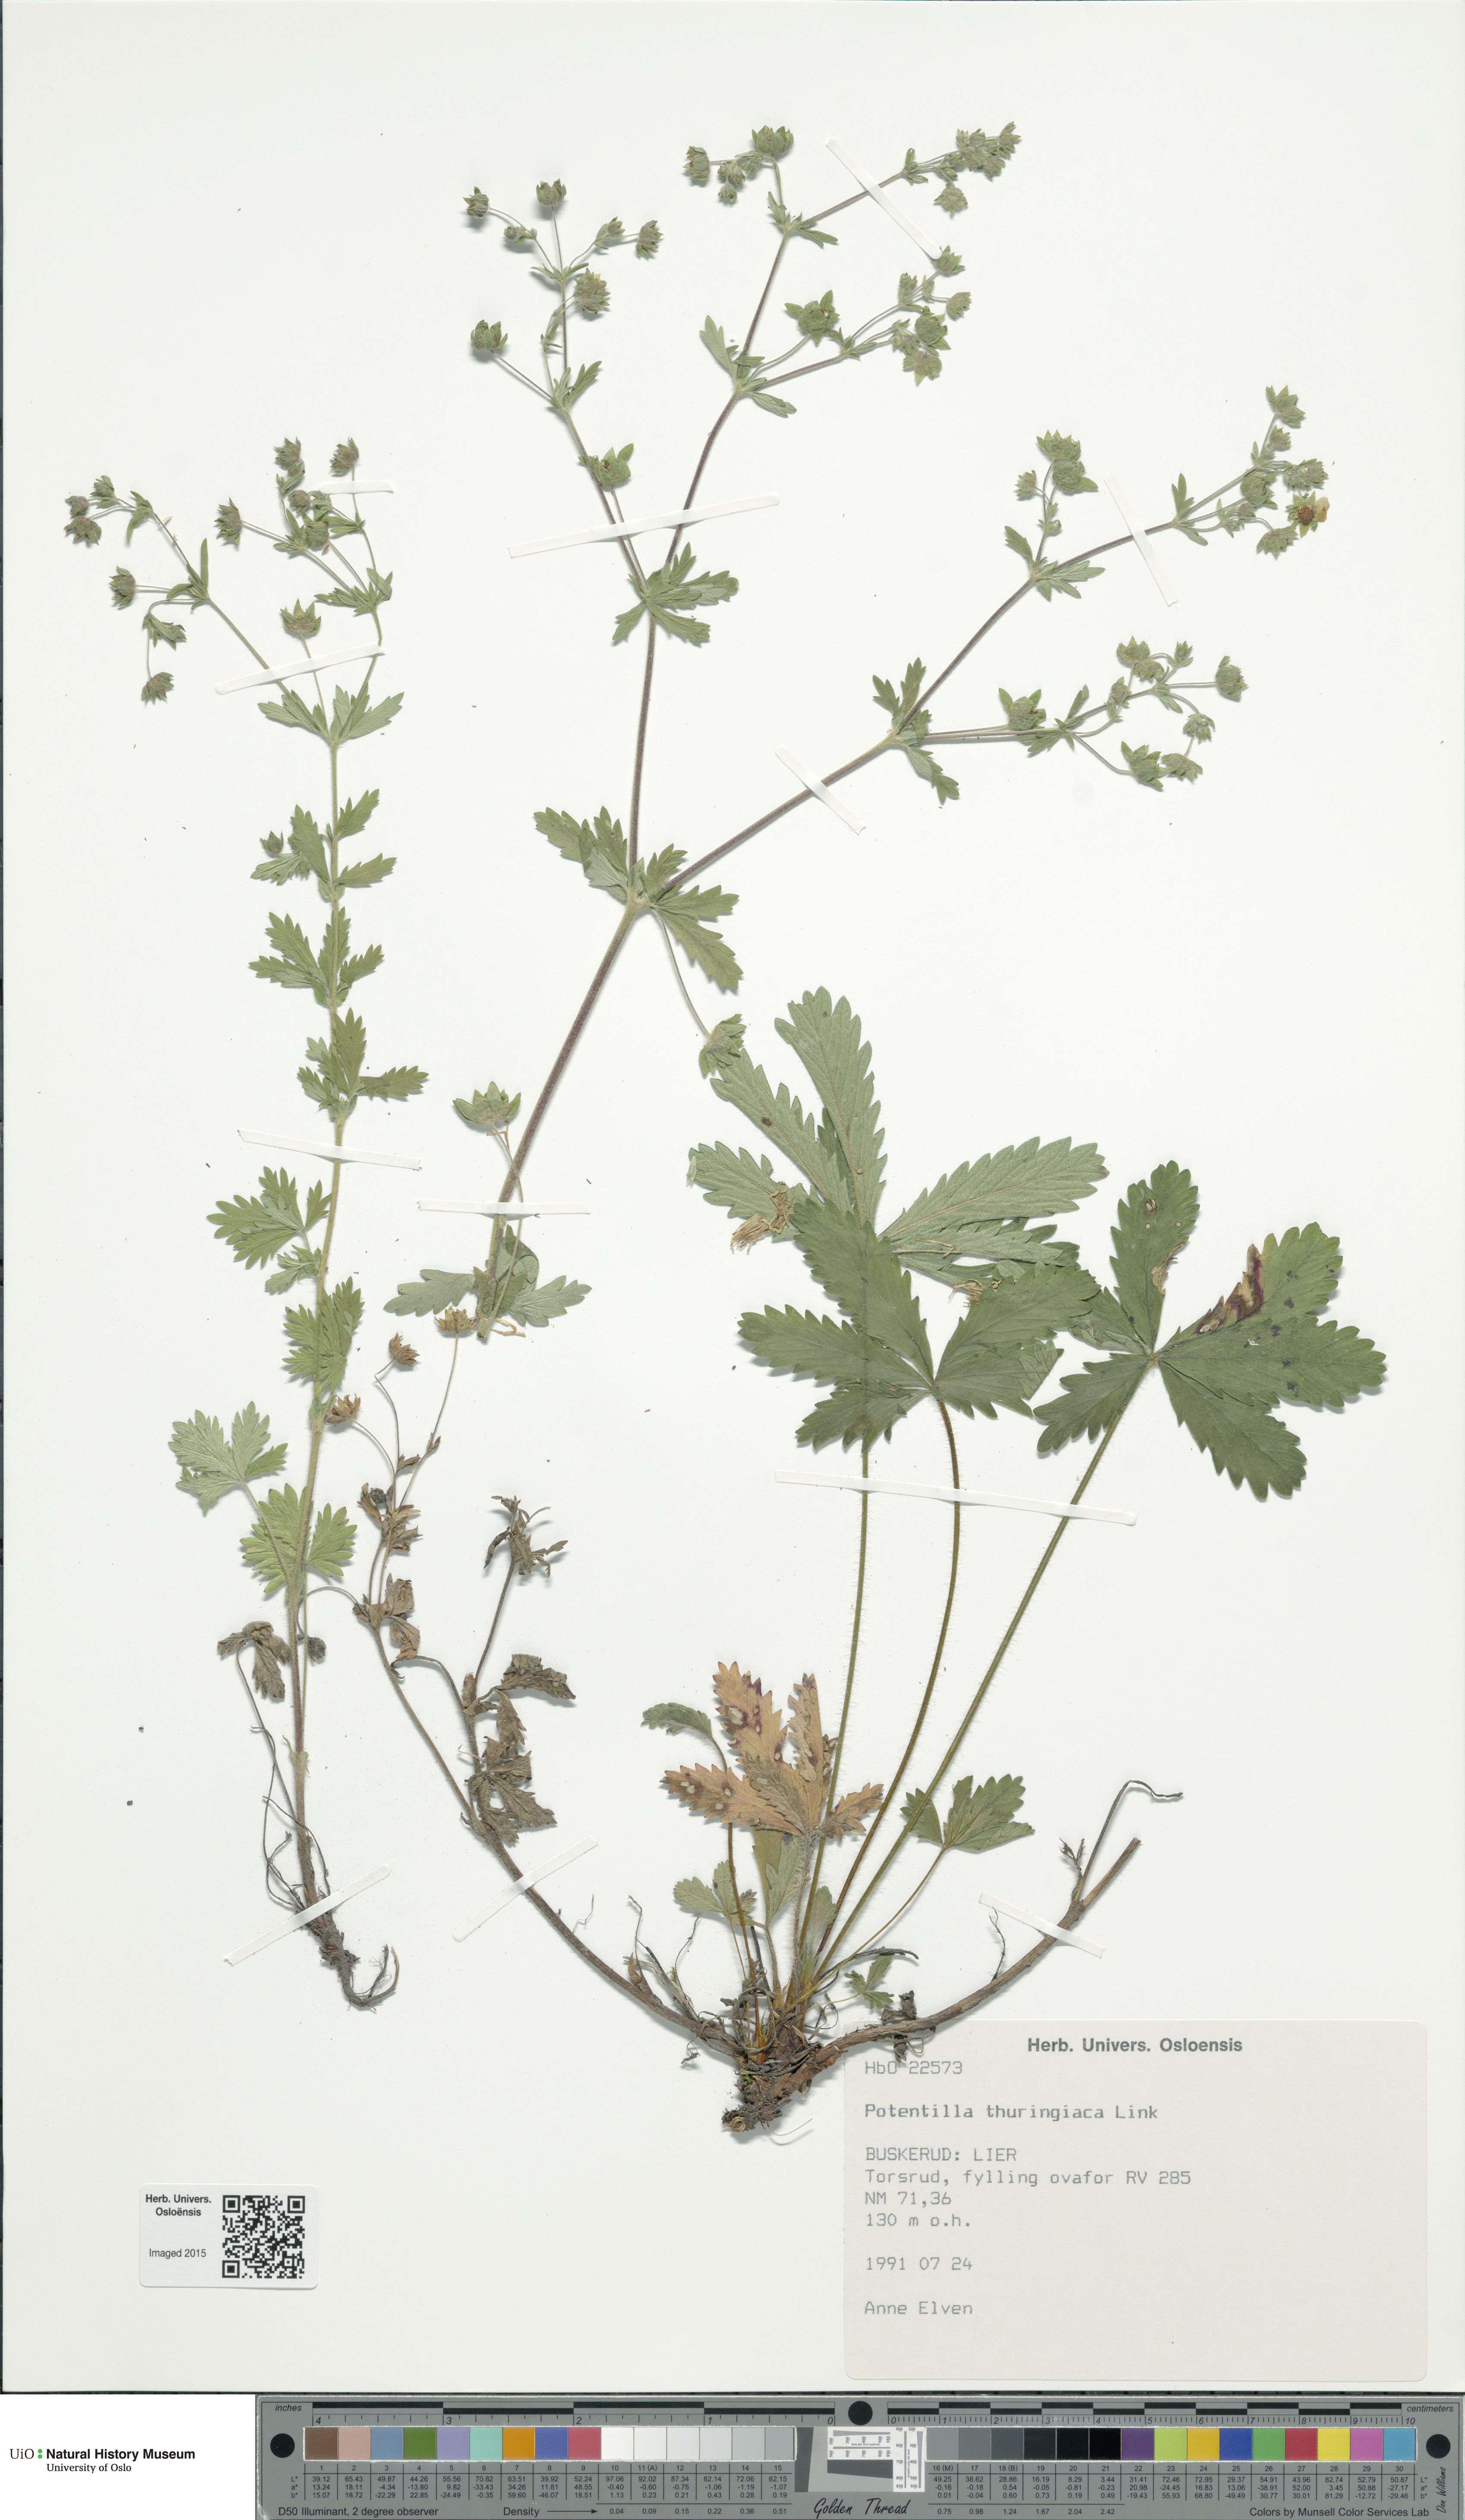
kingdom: Plantae
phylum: Tracheophyta
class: Magnoliopsida
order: Rosales
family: Rosaceae
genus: Potentilla
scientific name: Potentilla thuringiaca
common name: European cinquefoil
